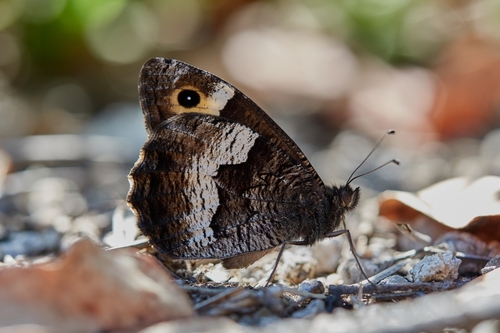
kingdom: Animalia
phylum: Arthropoda
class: Insecta
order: Lepidoptera
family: Nymphalidae
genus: Hipparchia
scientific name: Hipparchia hermione
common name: Rock grayling
